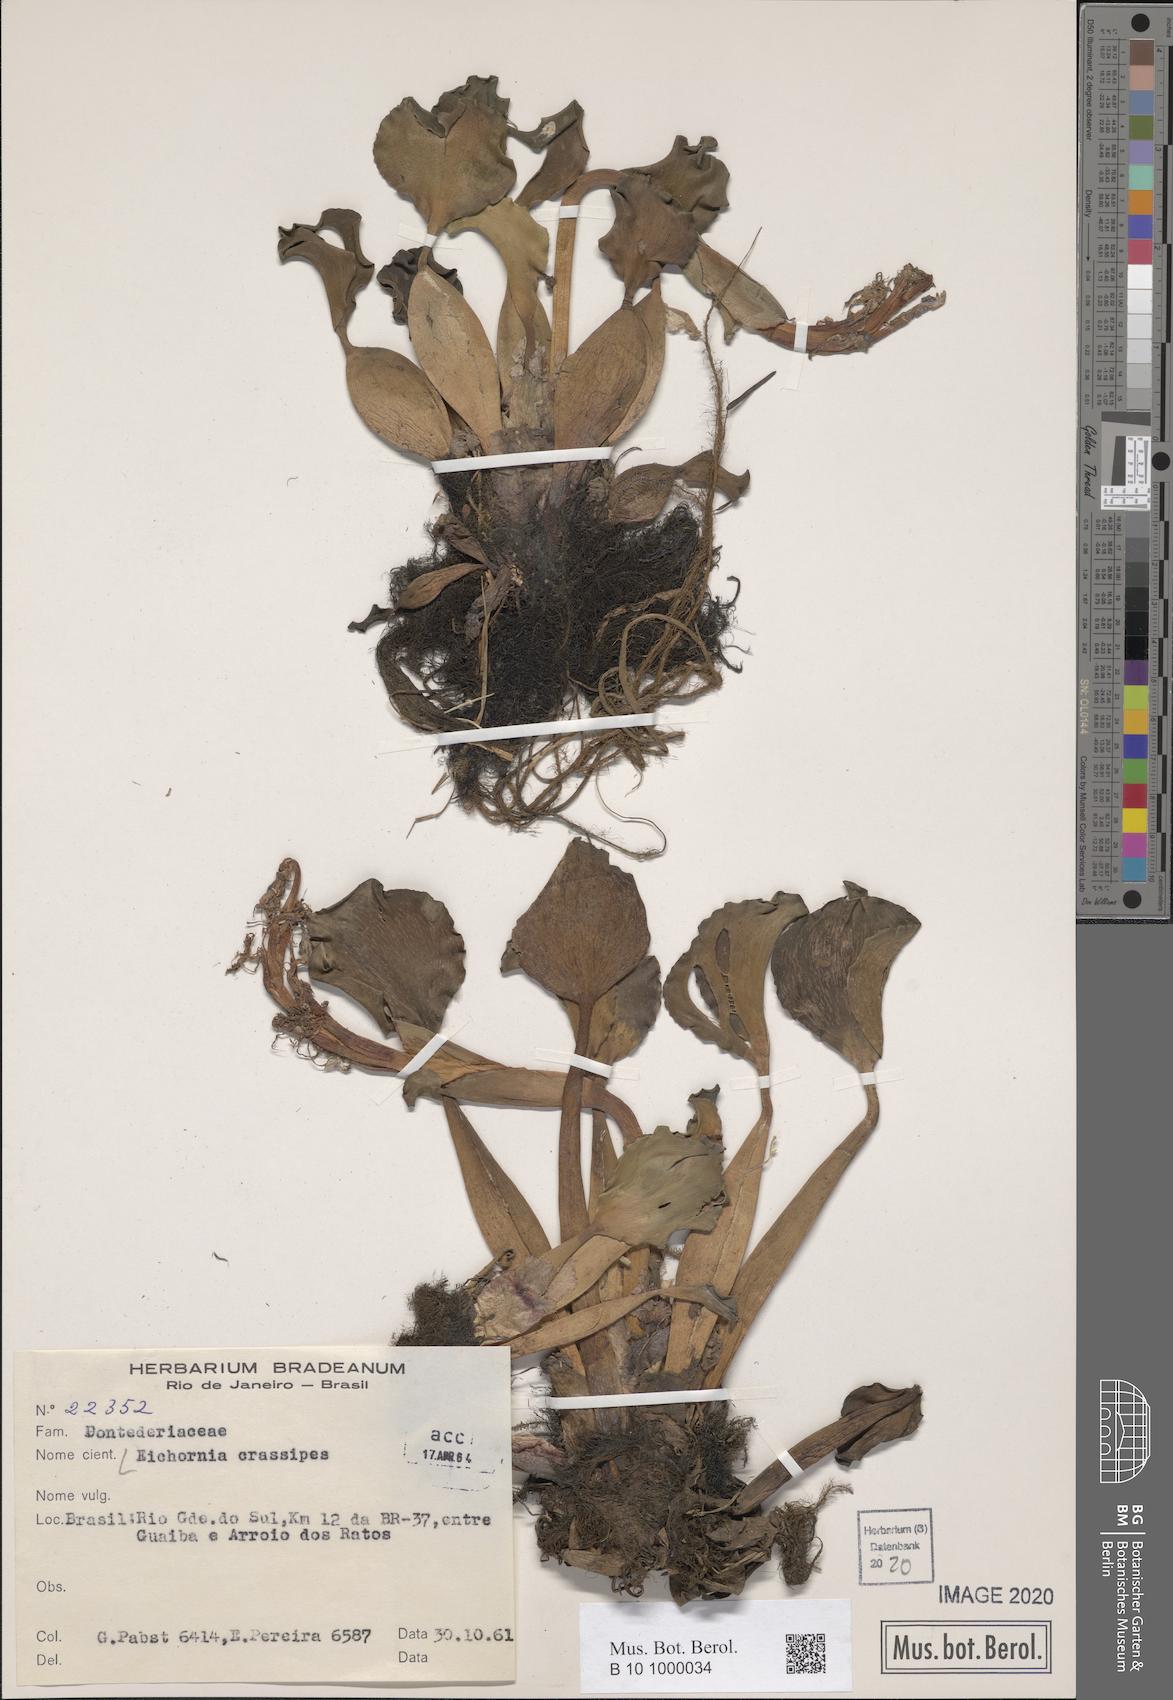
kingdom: Plantae
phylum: Tracheophyta
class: Liliopsida
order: Commelinales
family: Pontederiaceae
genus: Pontederia
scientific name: Pontederia crassipes
